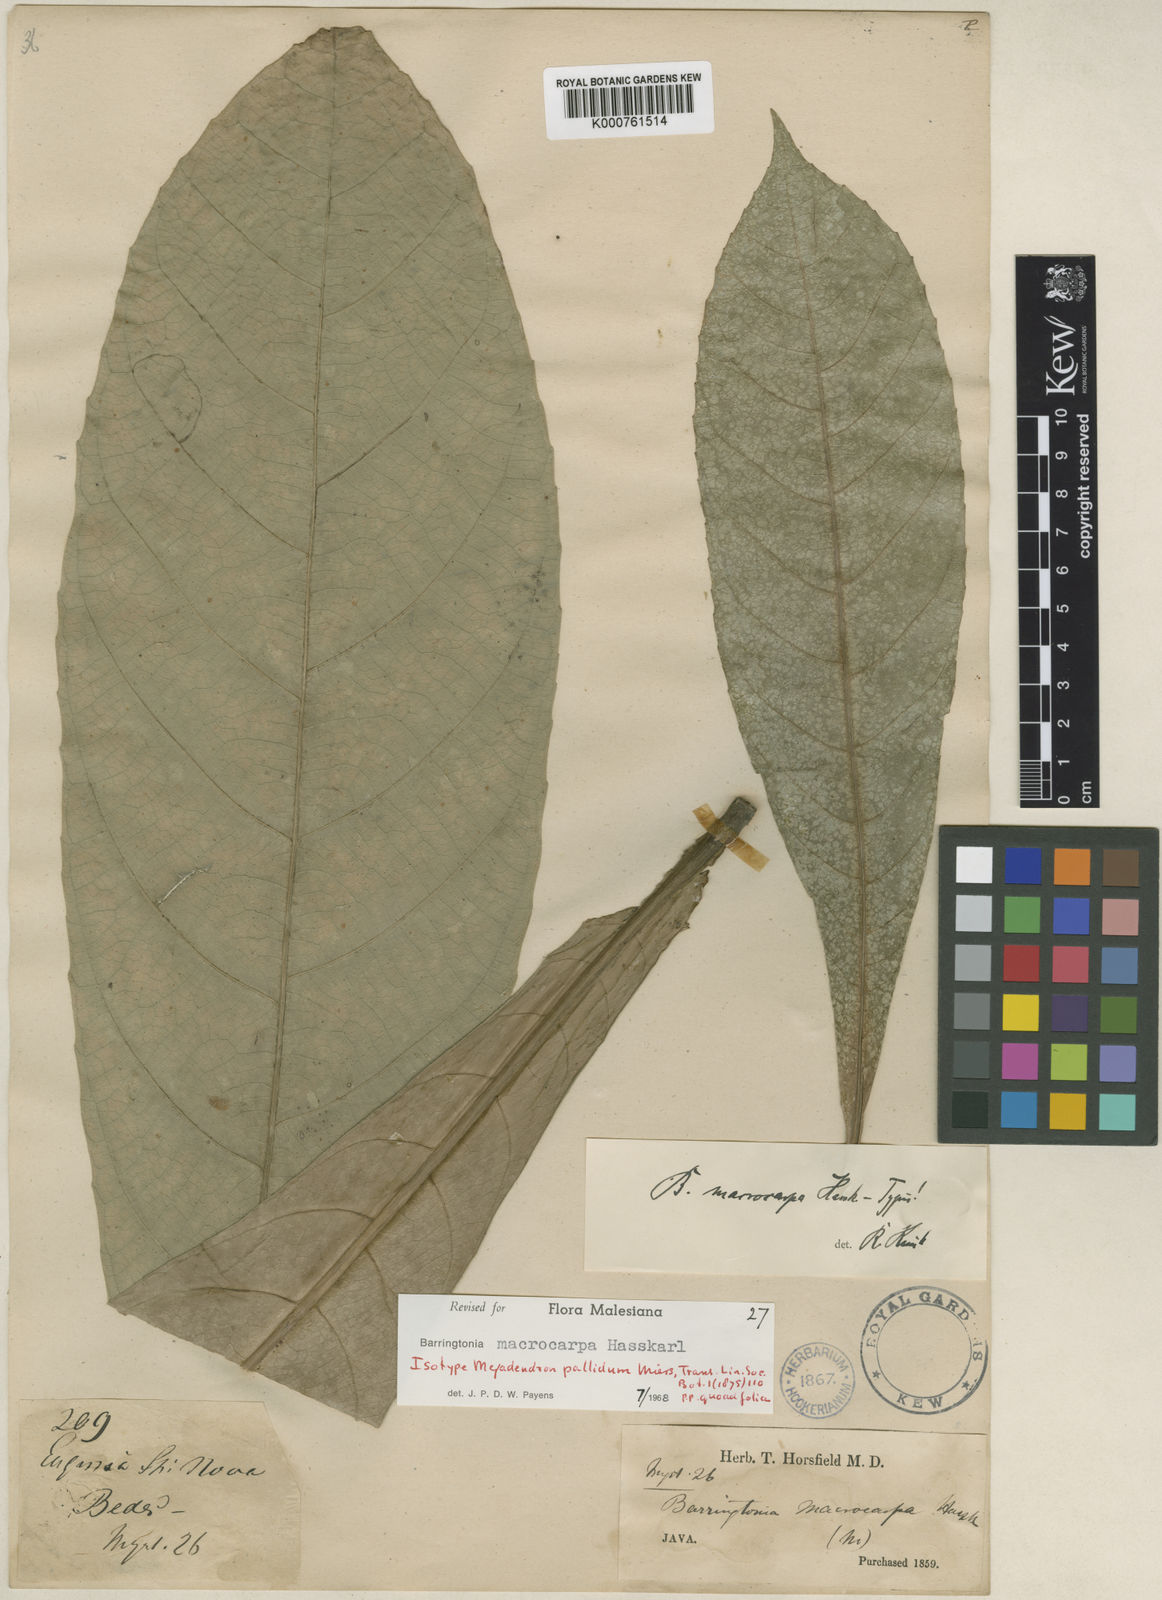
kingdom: Plantae
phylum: Tracheophyta
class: Magnoliopsida
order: Ericales
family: Lecythidaceae
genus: Barringtonia
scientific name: Barringtonia macrocarpa
